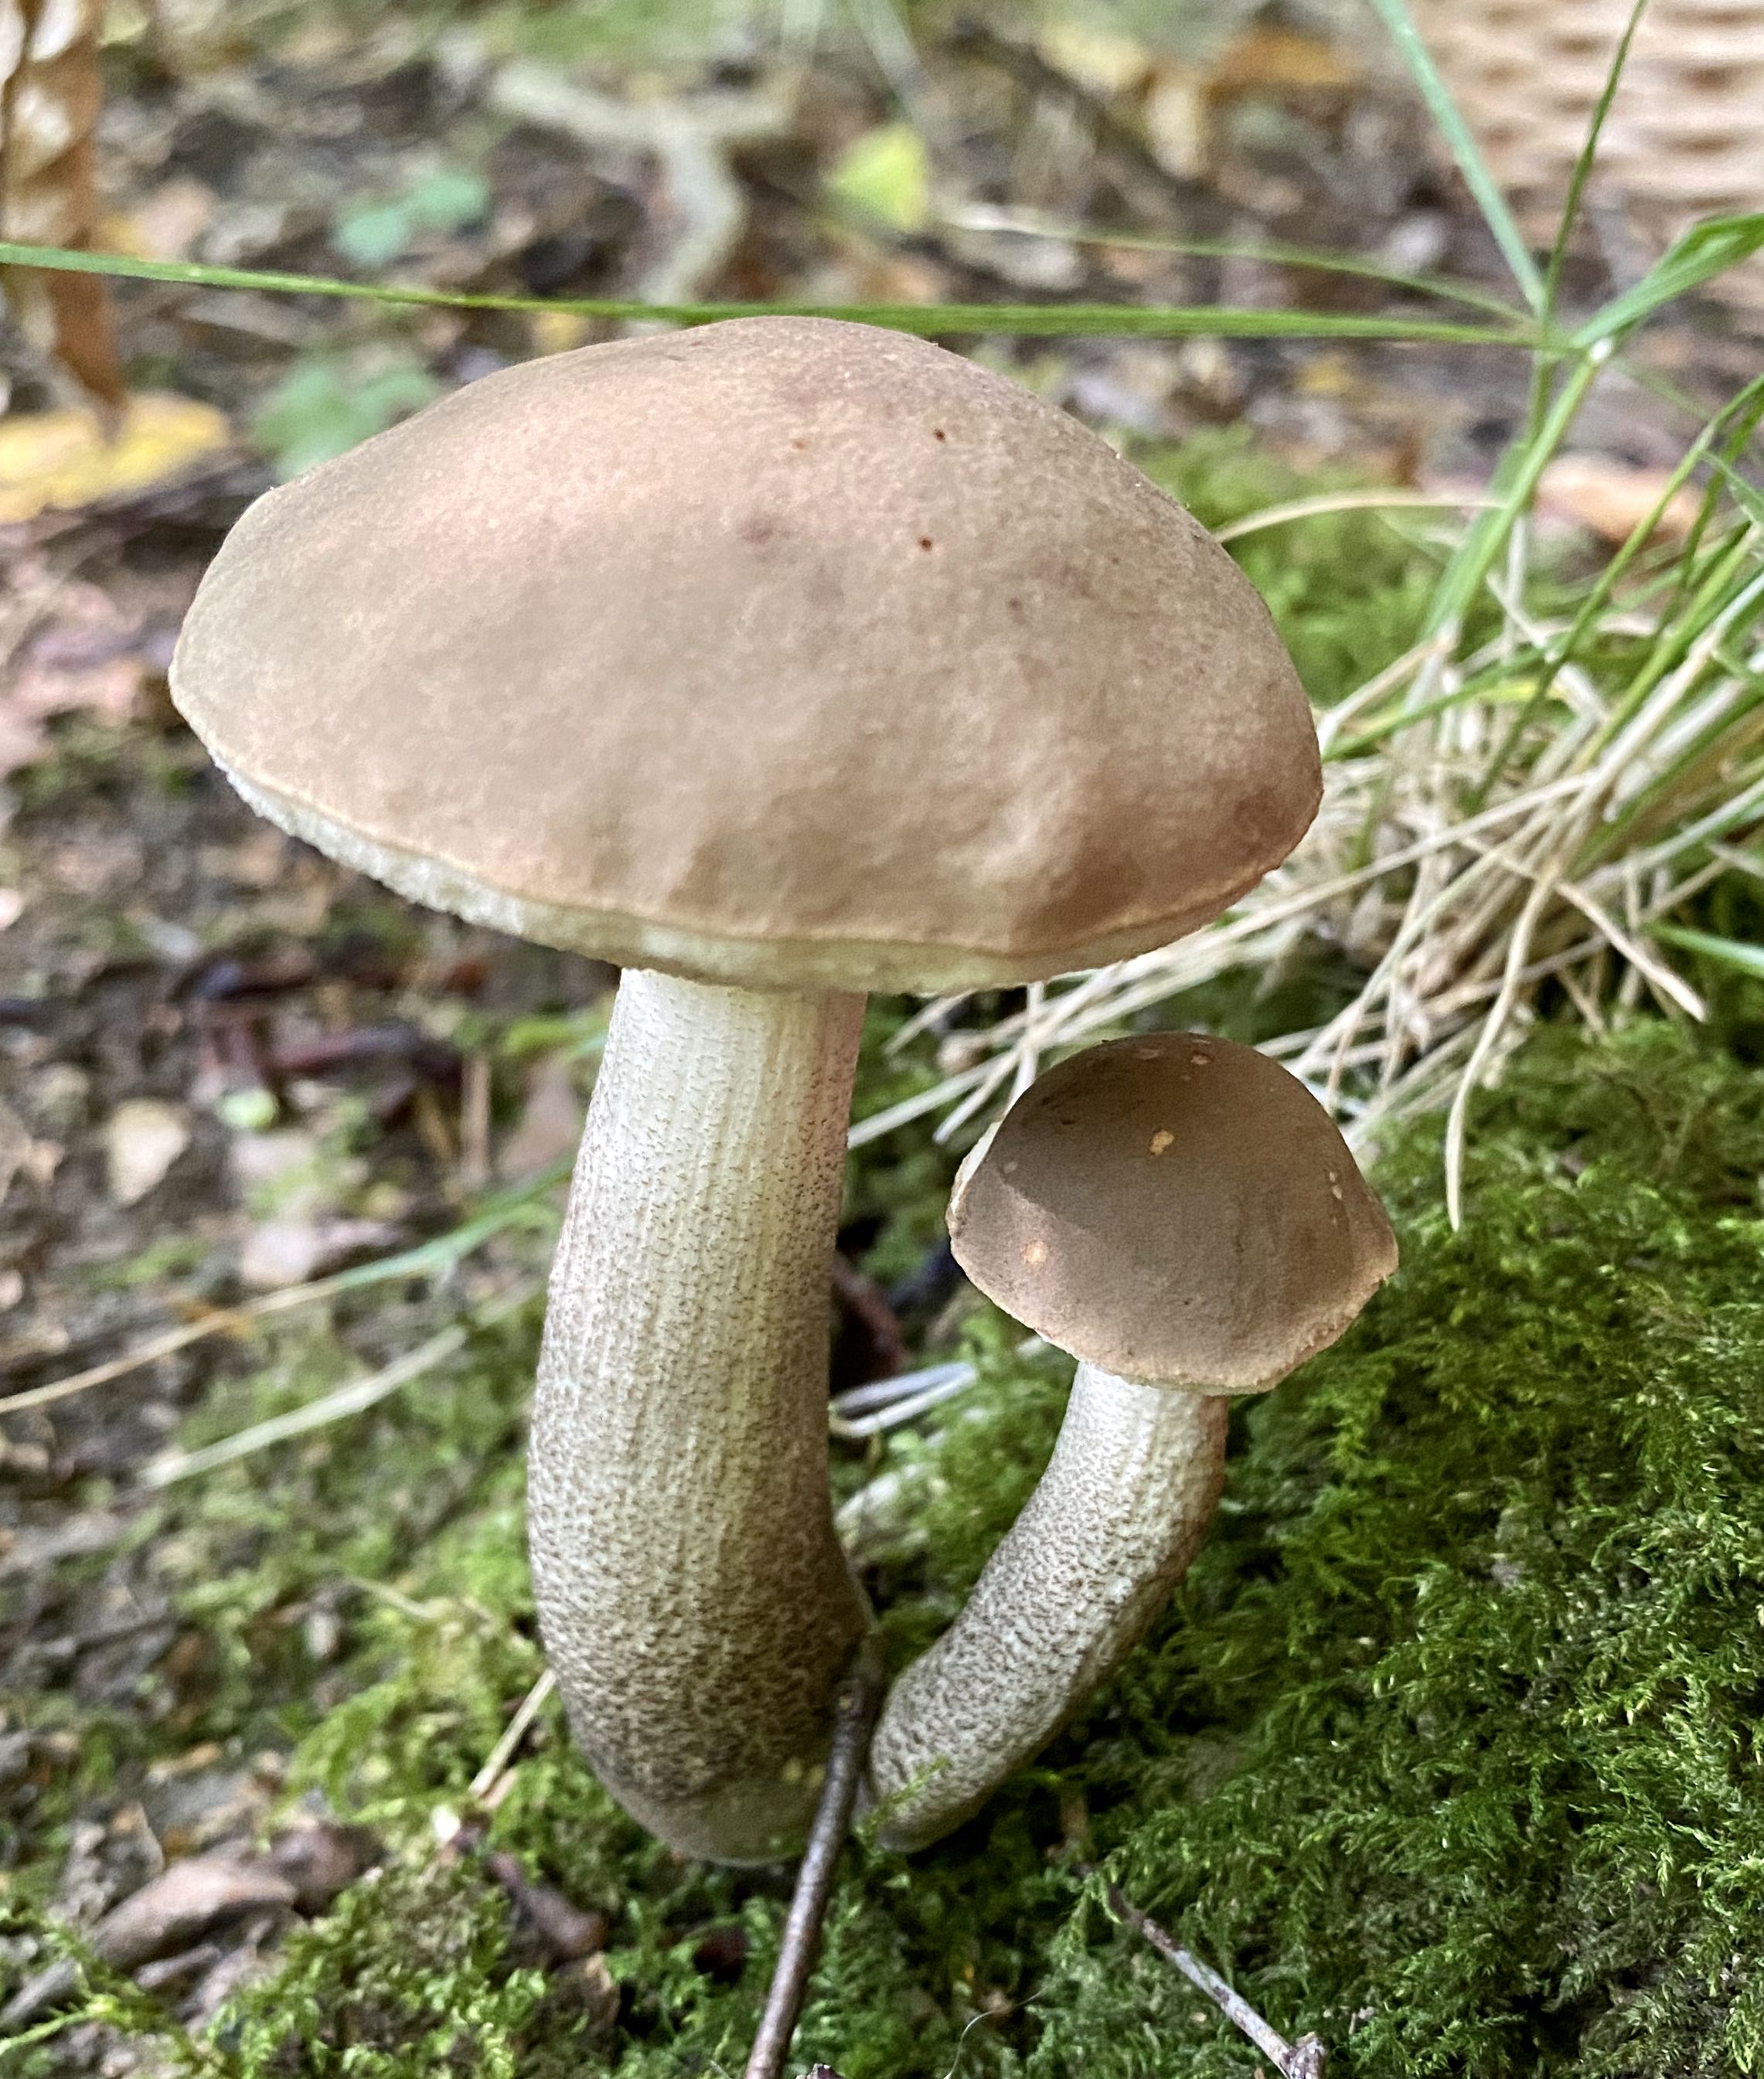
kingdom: Fungi
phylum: Basidiomycota
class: Agaricomycetes
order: Boletales
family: Boletaceae
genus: Leccinum
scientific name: Leccinum scabrum
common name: brun skælrørhat
